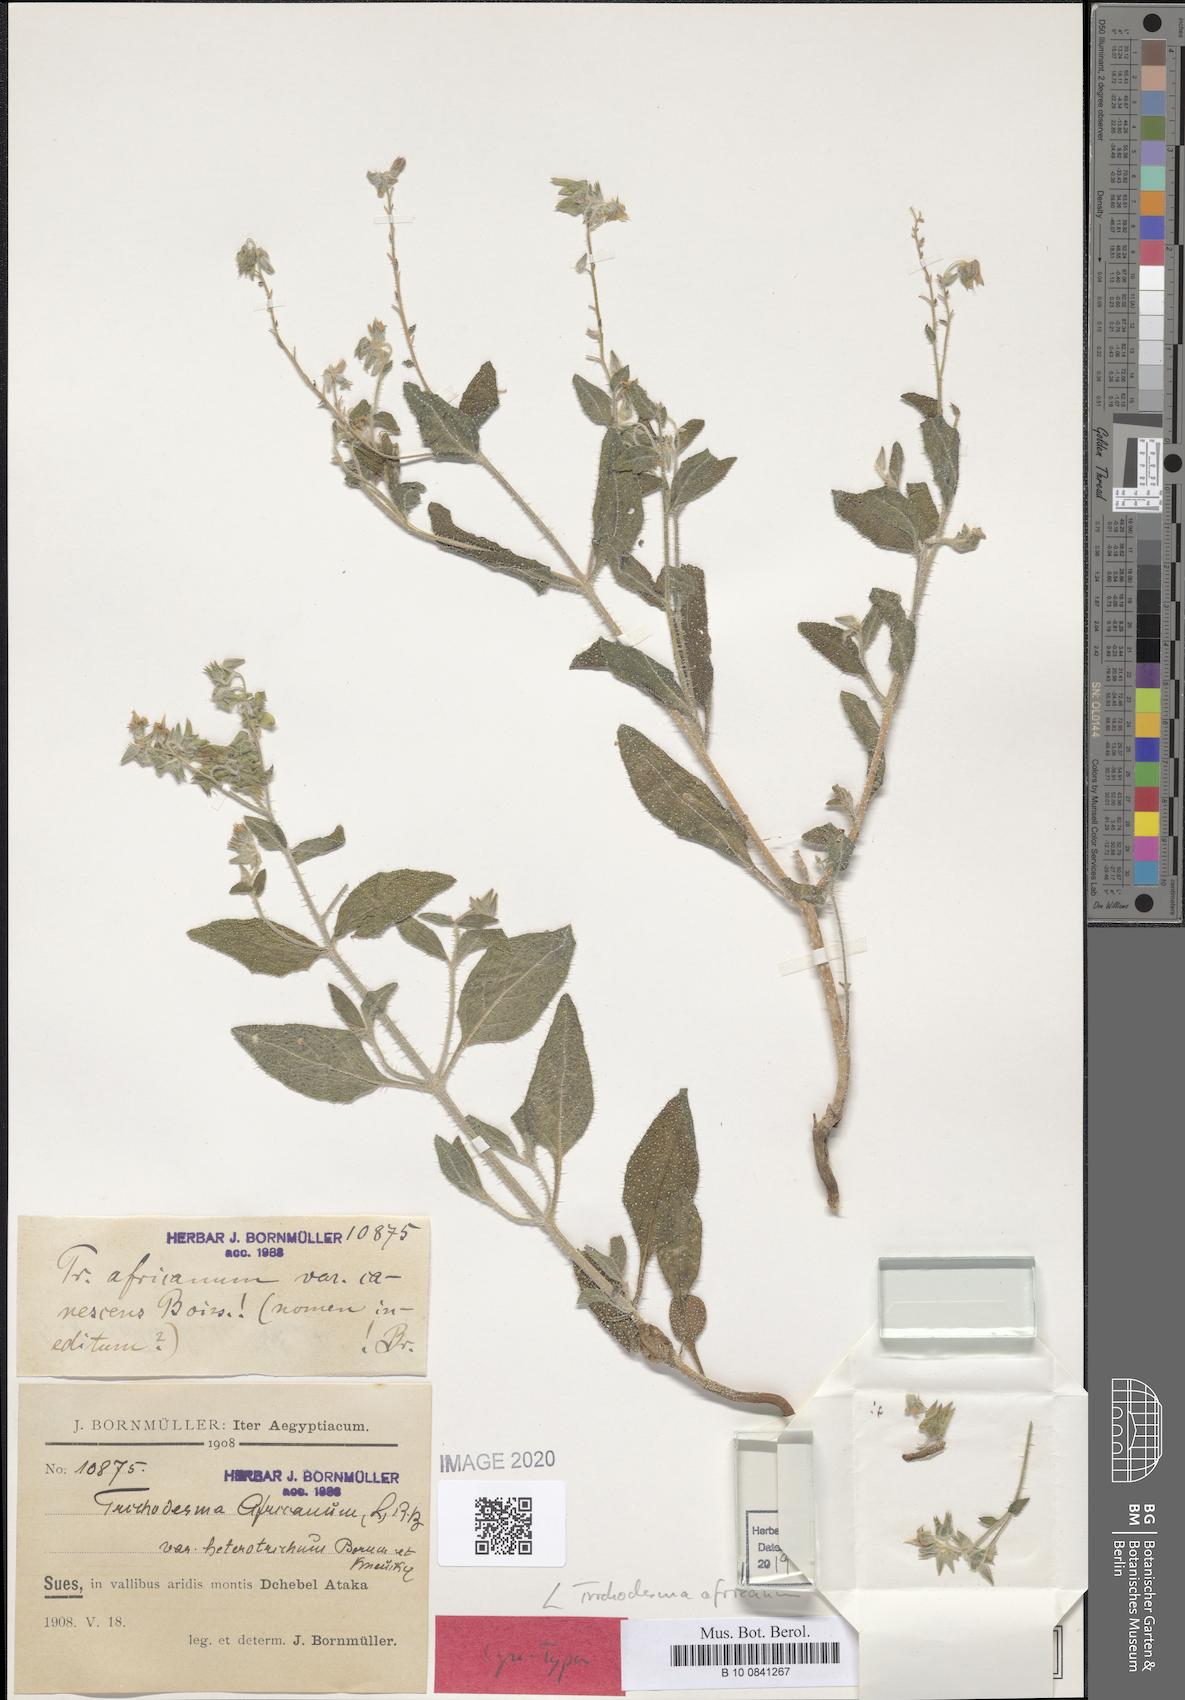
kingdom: Plantae
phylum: Tracheophyta
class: Magnoliopsida
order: Boraginales
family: Boraginaceae
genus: Trichodesma
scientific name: Trichodesma africanum
